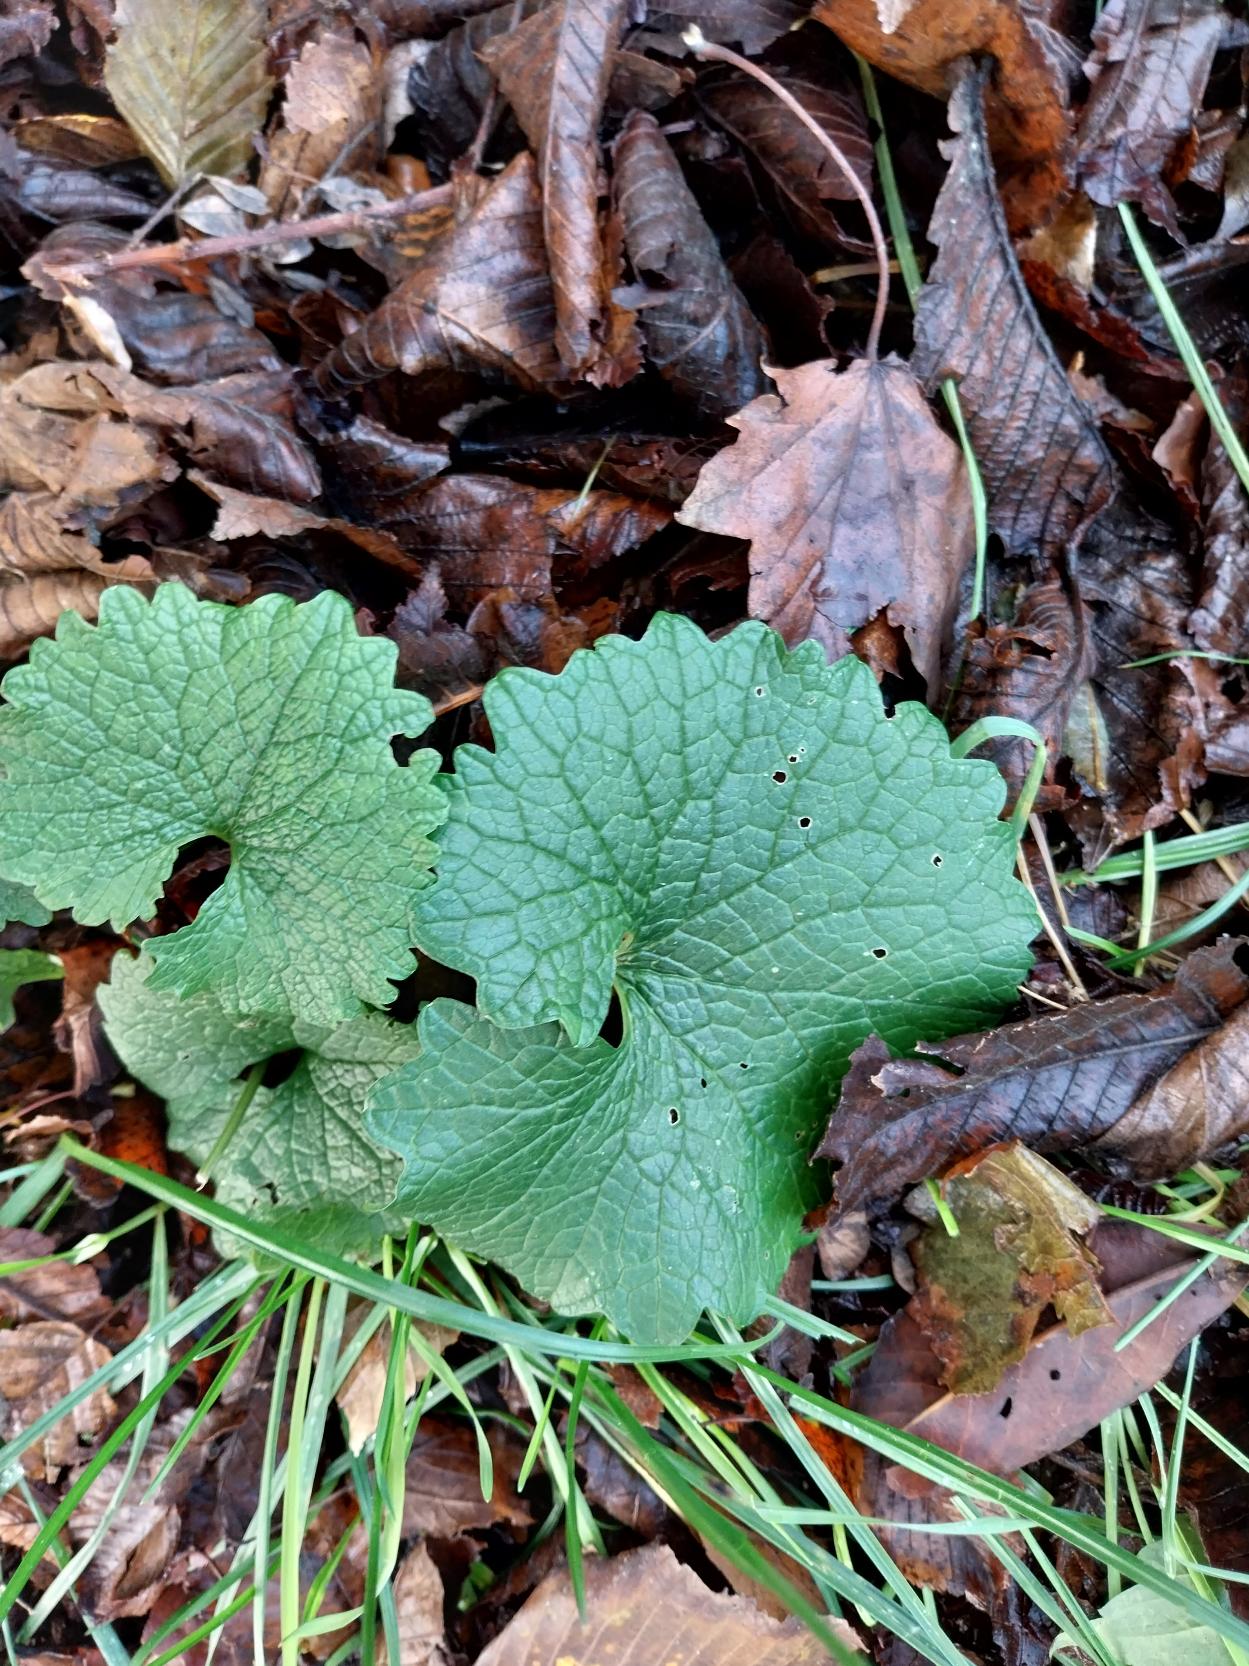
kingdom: Plantae
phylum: Tracheophyta
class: Magnoliopsida
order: Brassicales
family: Brassicaceae
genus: Alliaria
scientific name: Alliaria petiolata
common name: Løgkarse
